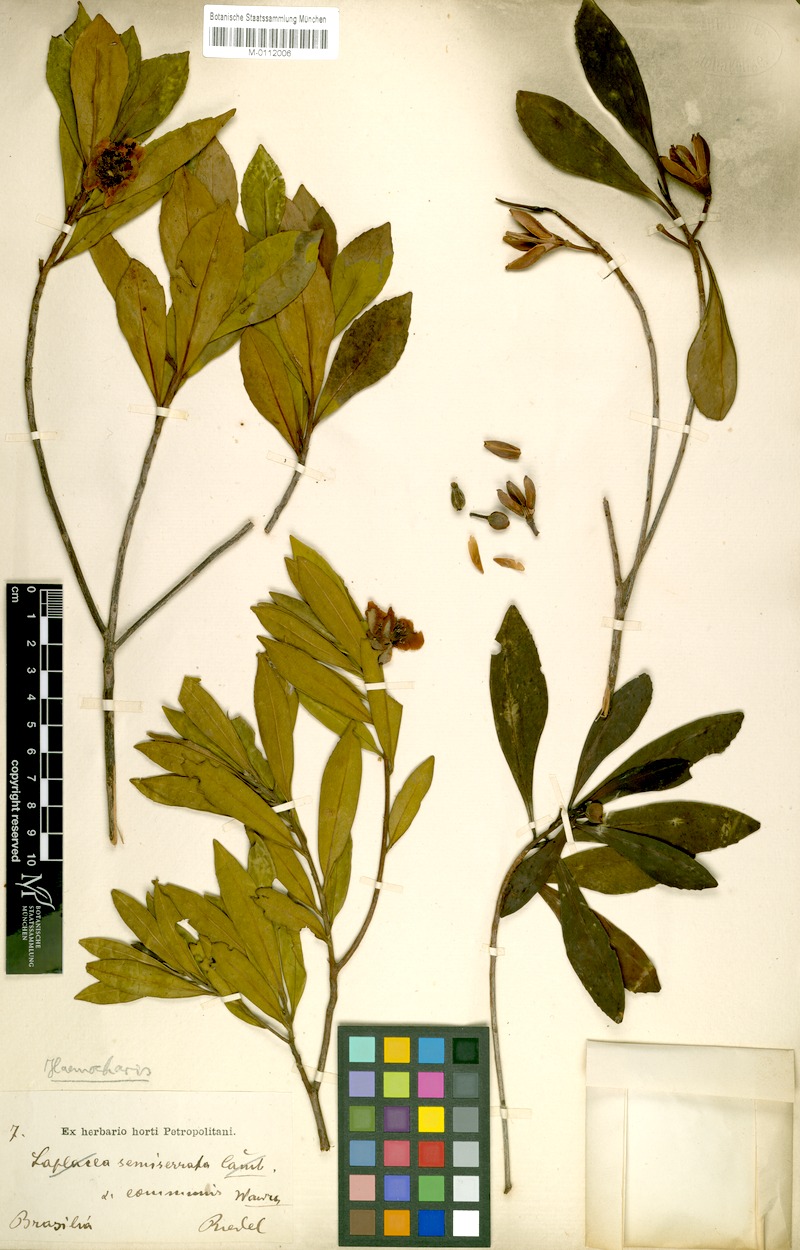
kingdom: Plantae
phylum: Tracheophyta
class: Magnoliopsida
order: Ericales
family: Theaceae
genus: Gordonia
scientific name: Gordonia fruticosa
